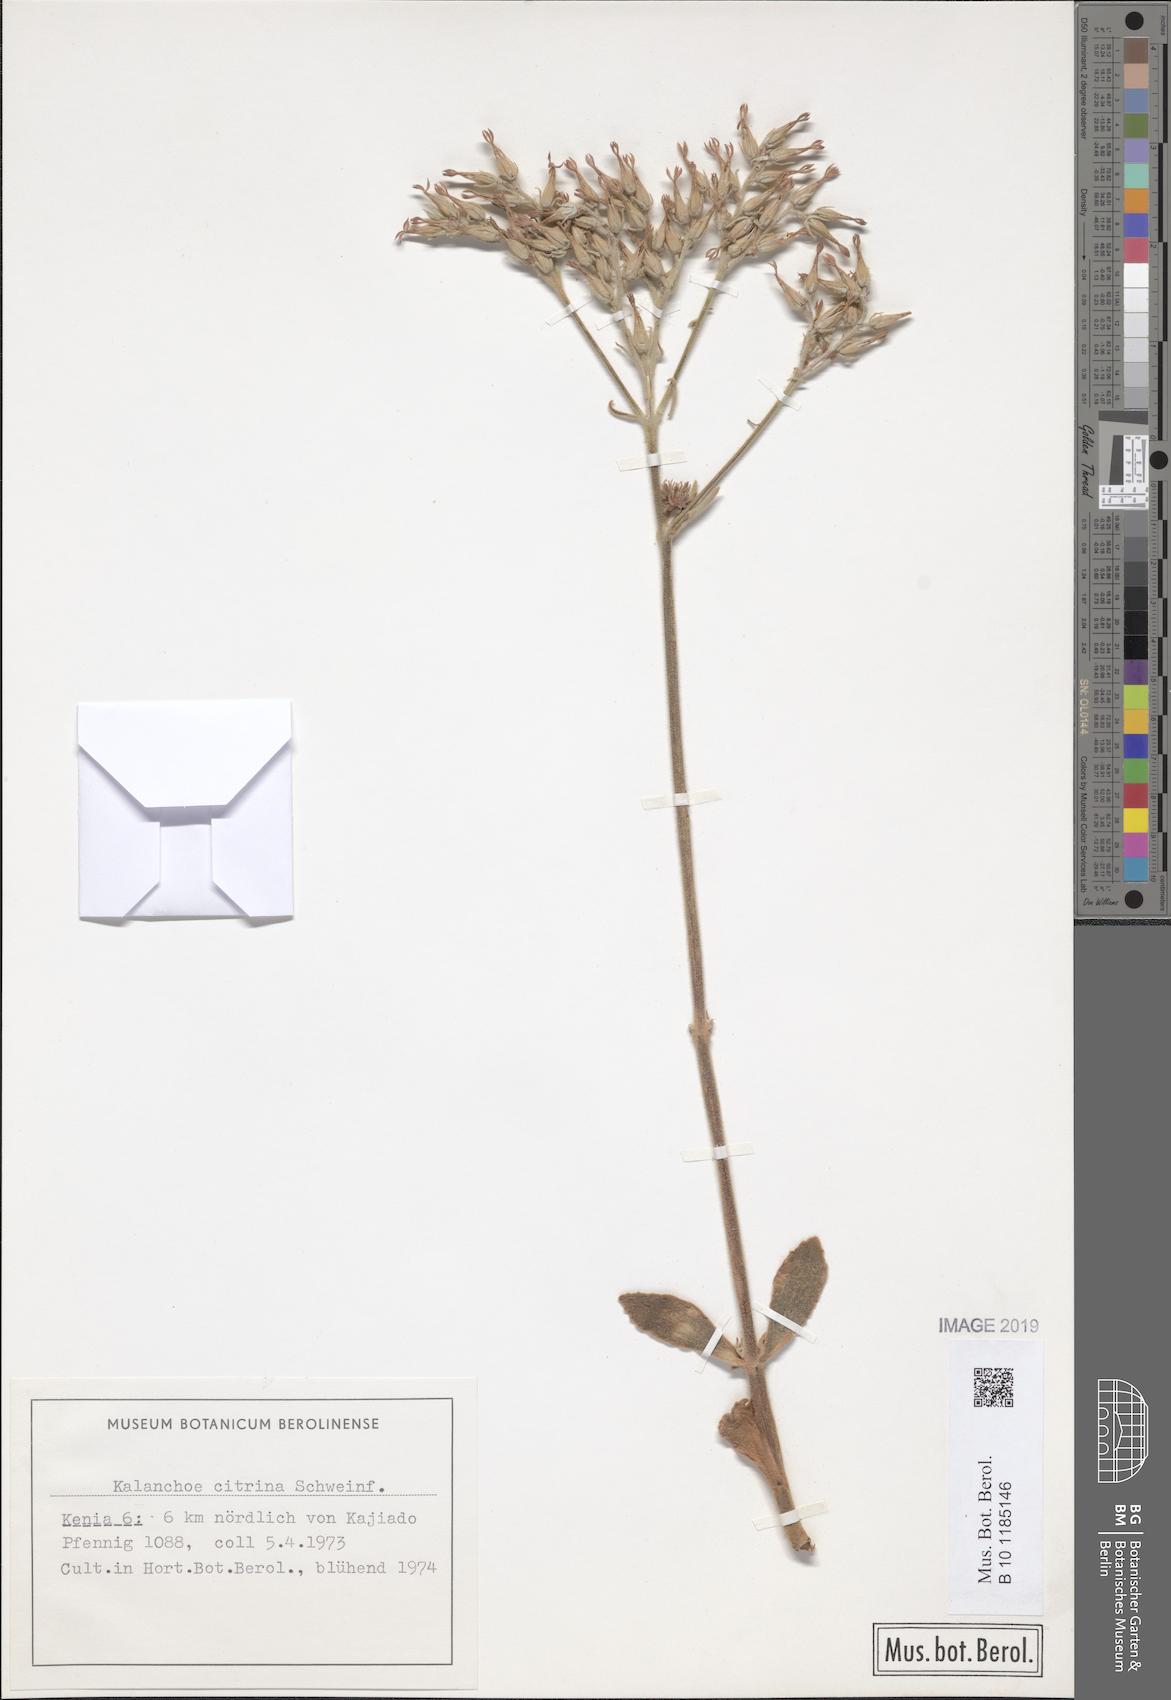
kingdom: Plantae
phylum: Tracheophyta
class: Magnoliopsida
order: Saxifragales
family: Crassulaceae
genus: Kalanchoe
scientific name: Kalanchoe citrina
